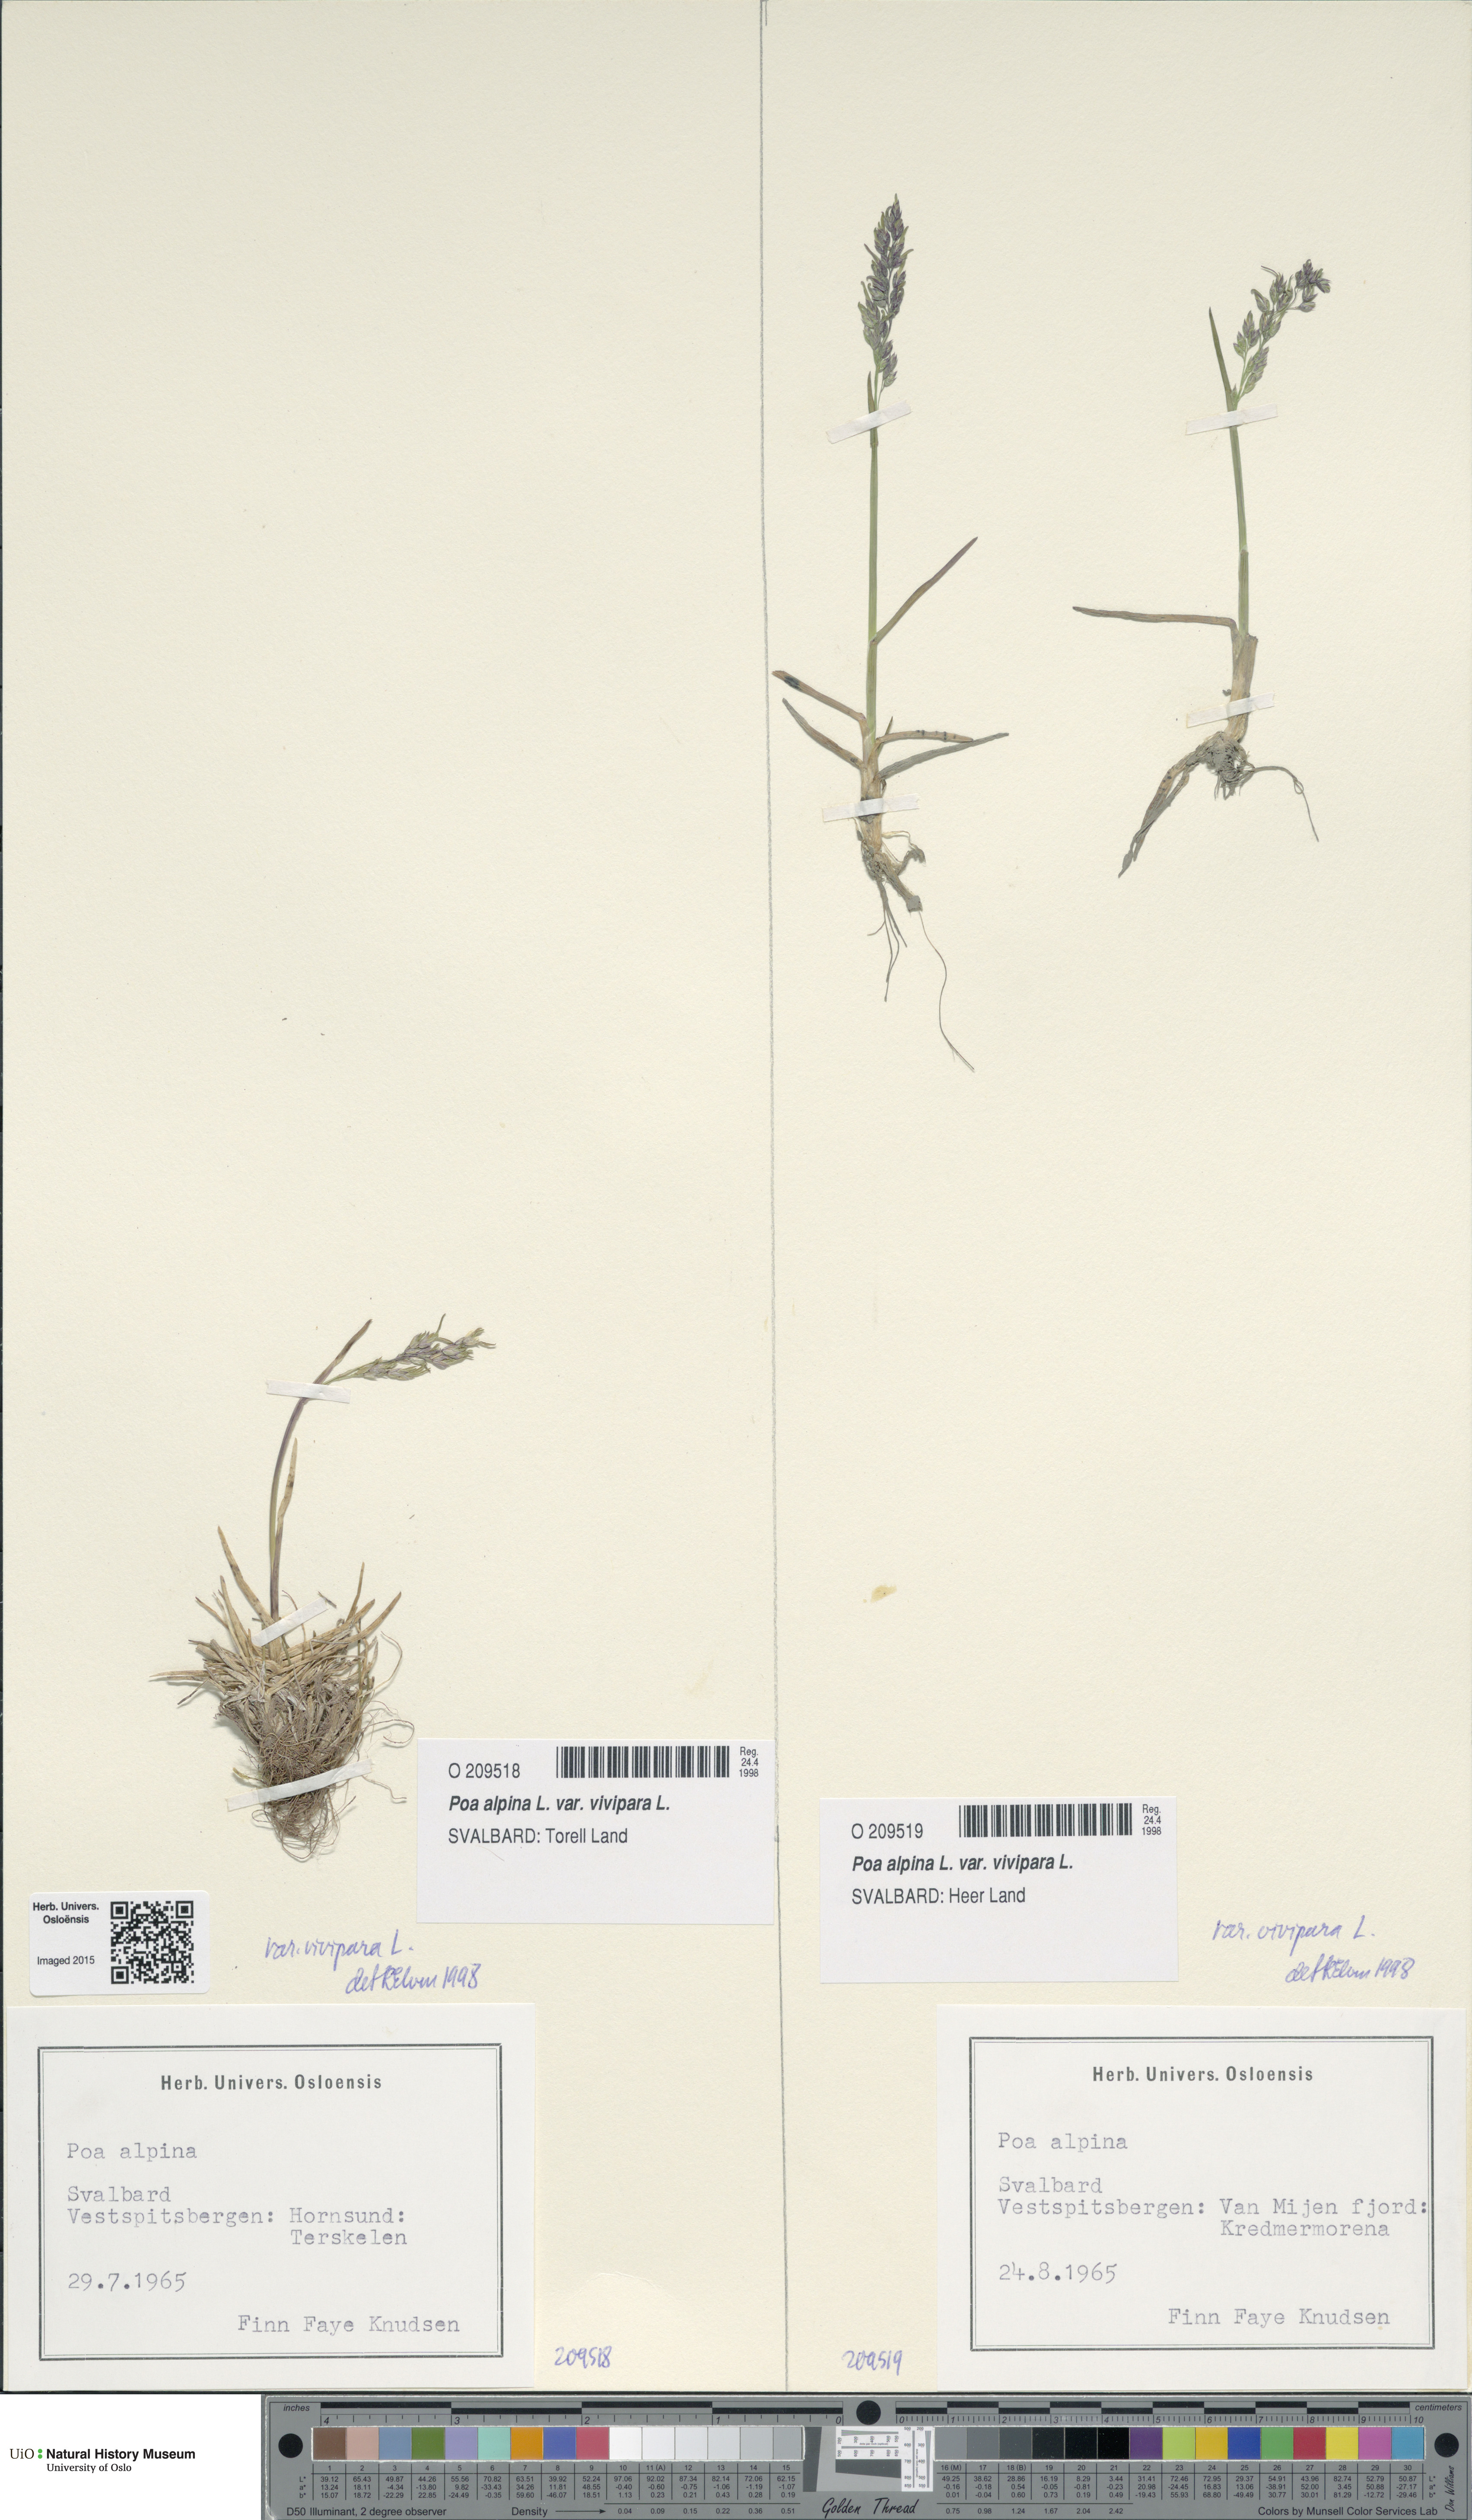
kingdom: Plantae
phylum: Tracheophyta
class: Liliopsida
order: Poales
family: Poaceae
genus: Poa
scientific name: Poa alpina
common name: Alpine bluegrass
